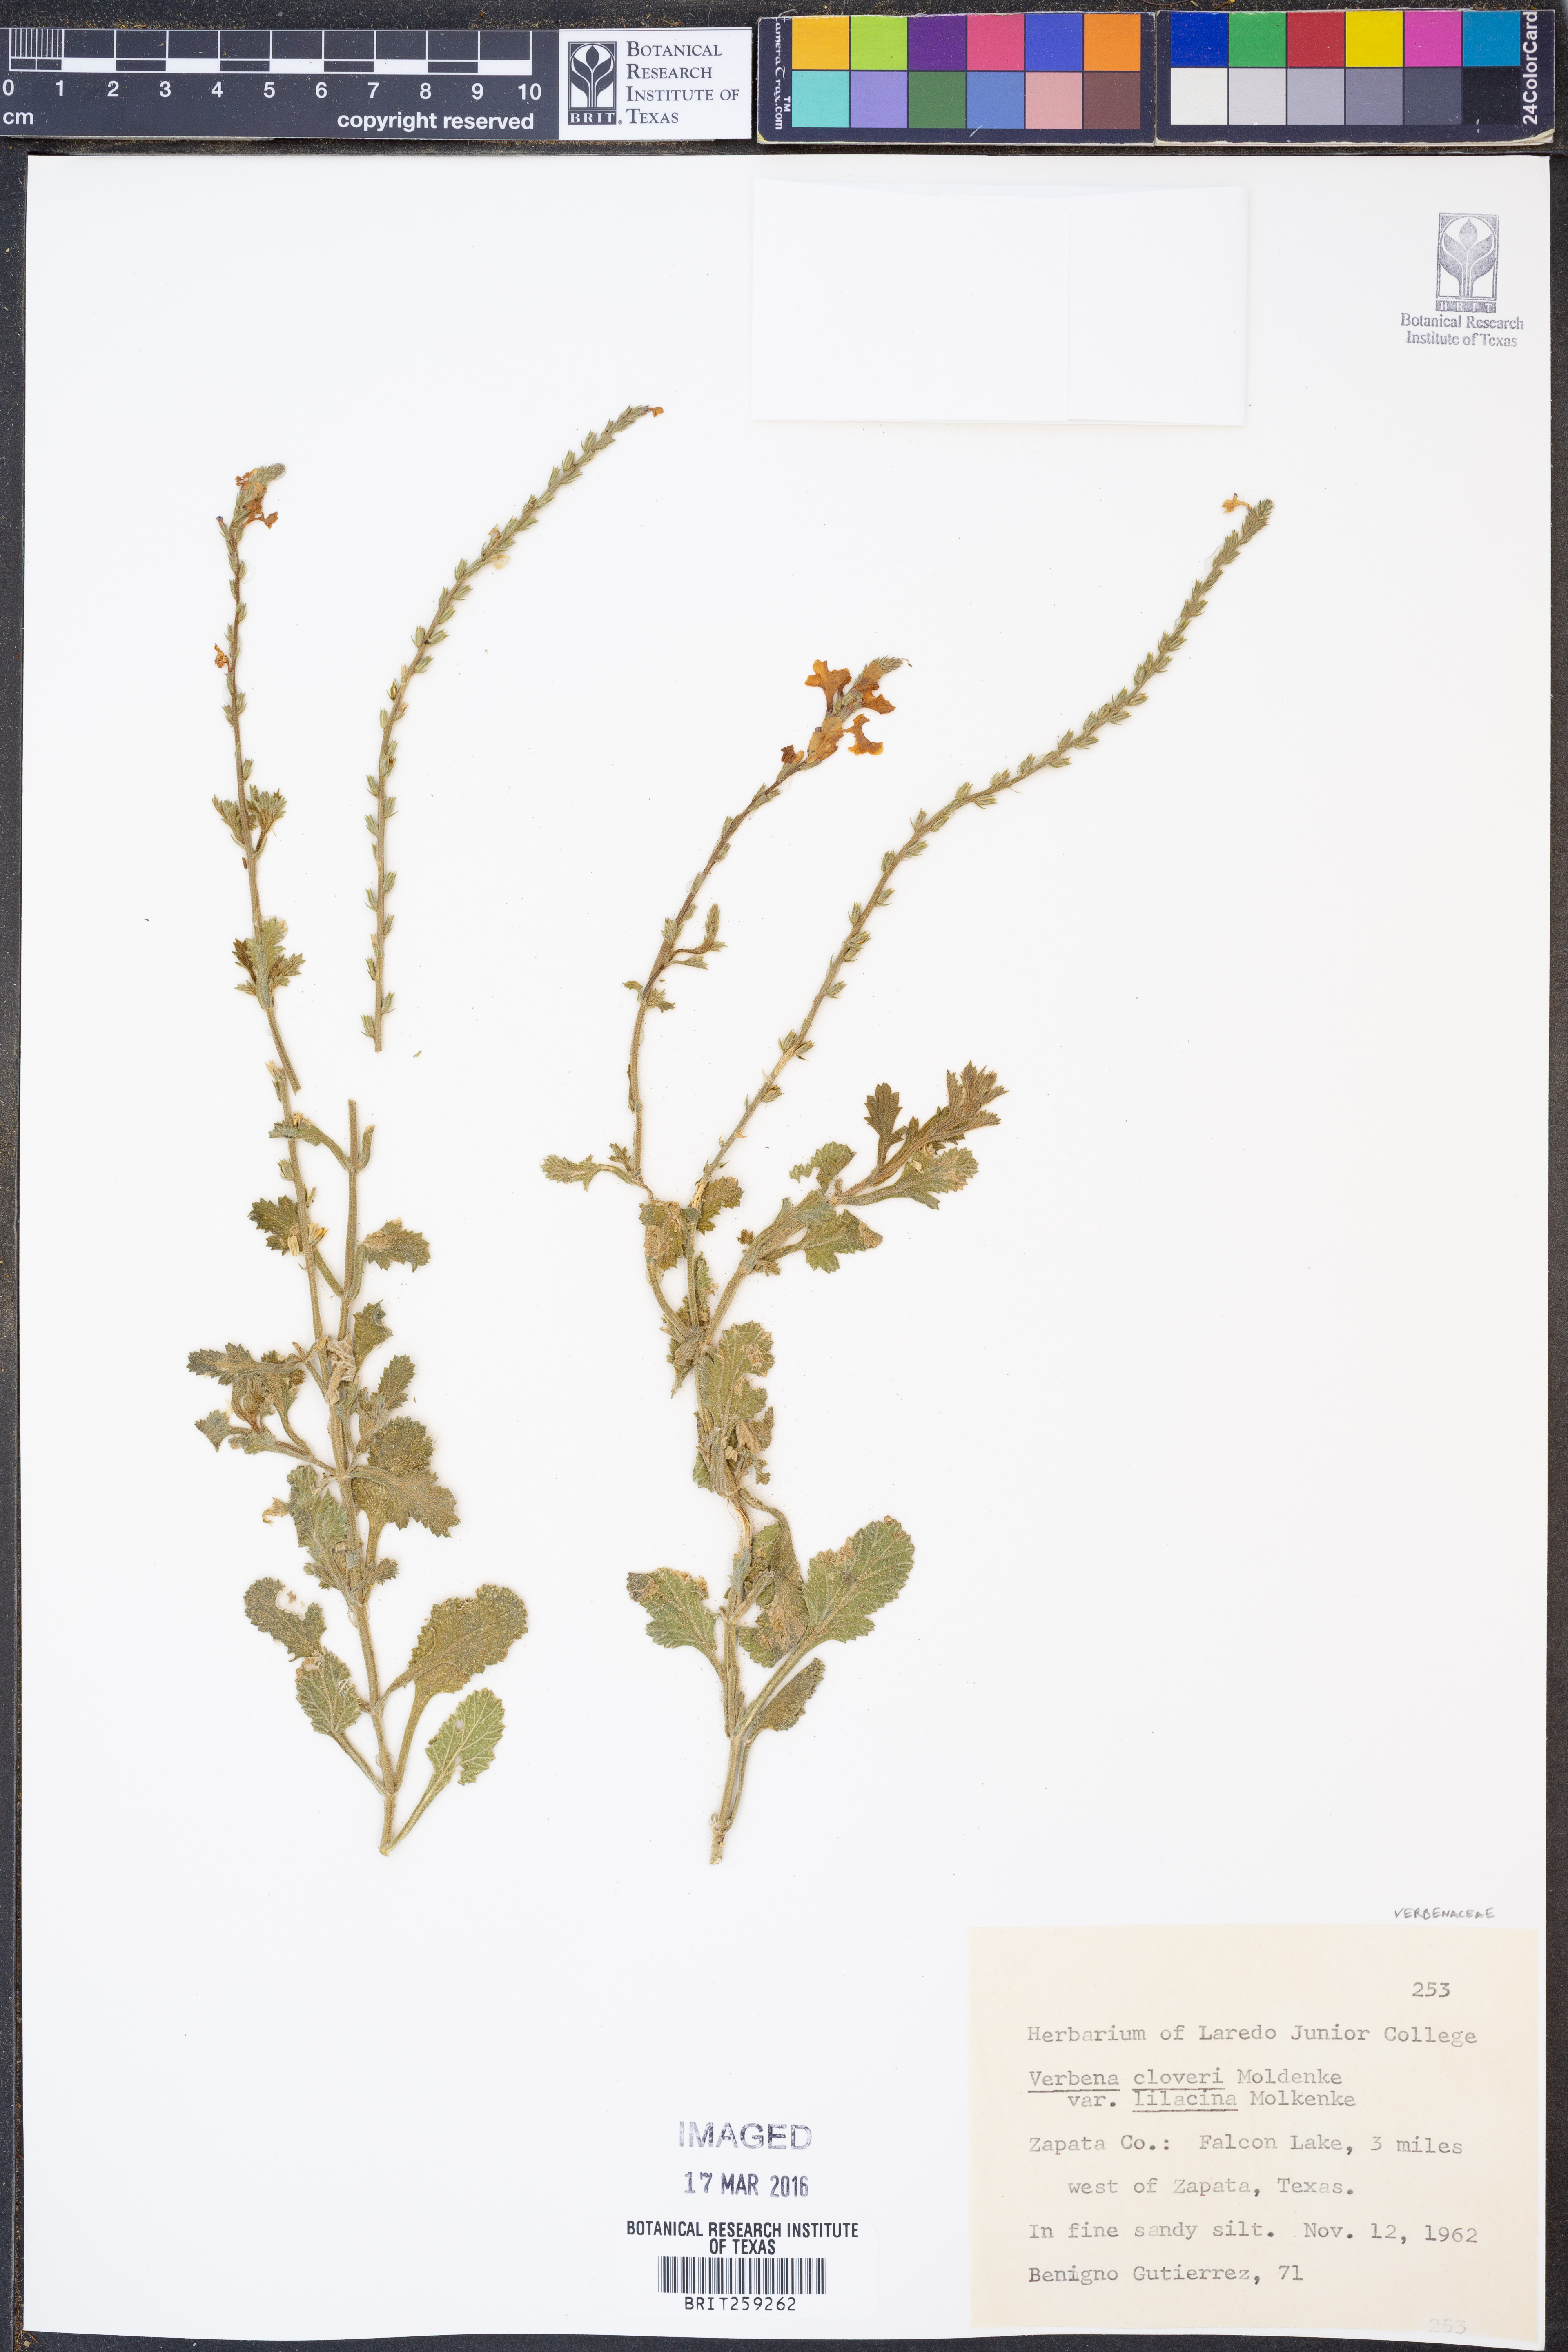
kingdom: Plantae
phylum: Tracheophyta
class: Magnoliopsida
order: Lamiales
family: Verbenaceae
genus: Verbena
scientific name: Verbena cloverae
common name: Clover's vervain
